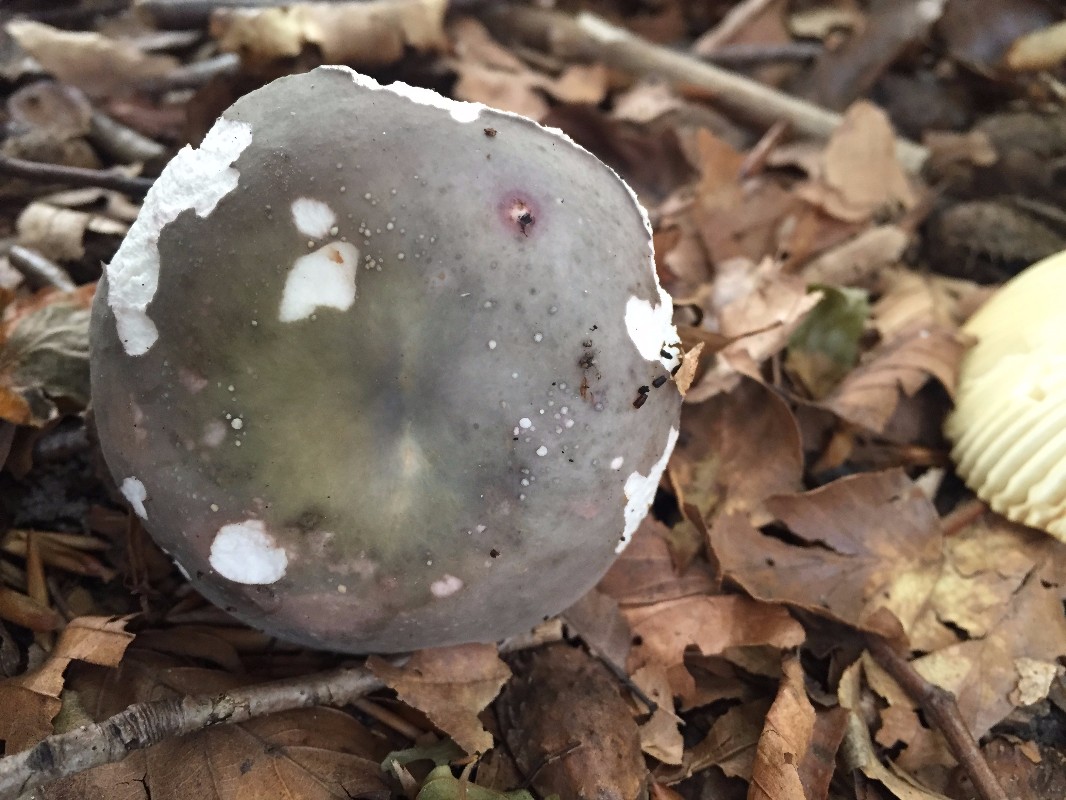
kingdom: Fungi
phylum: Basidiomycota
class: Agaricomycetes
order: Russulales
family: Russulaceae
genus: Russula
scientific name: Russula
